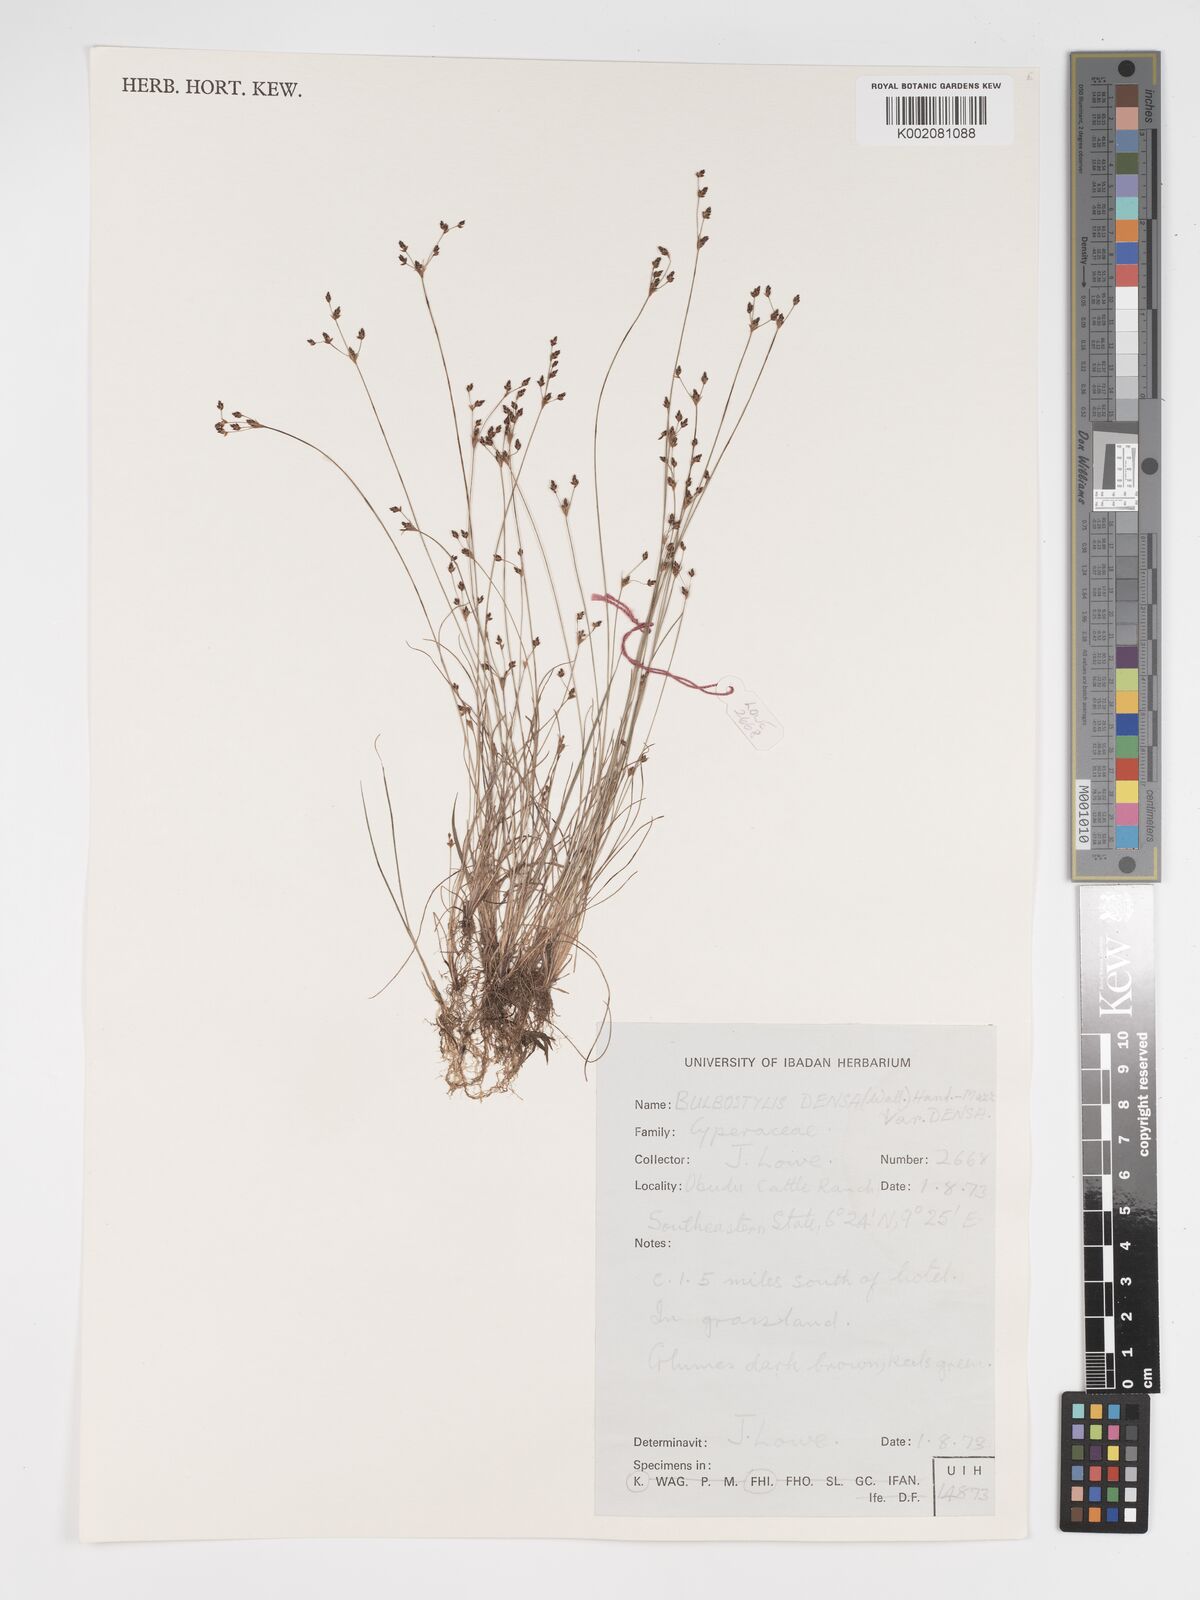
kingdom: Plantae
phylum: Tracheophyta
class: Liliopsida
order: Poales
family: Cyperaceae
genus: Bulbostylis
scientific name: Bulbostylis densa
